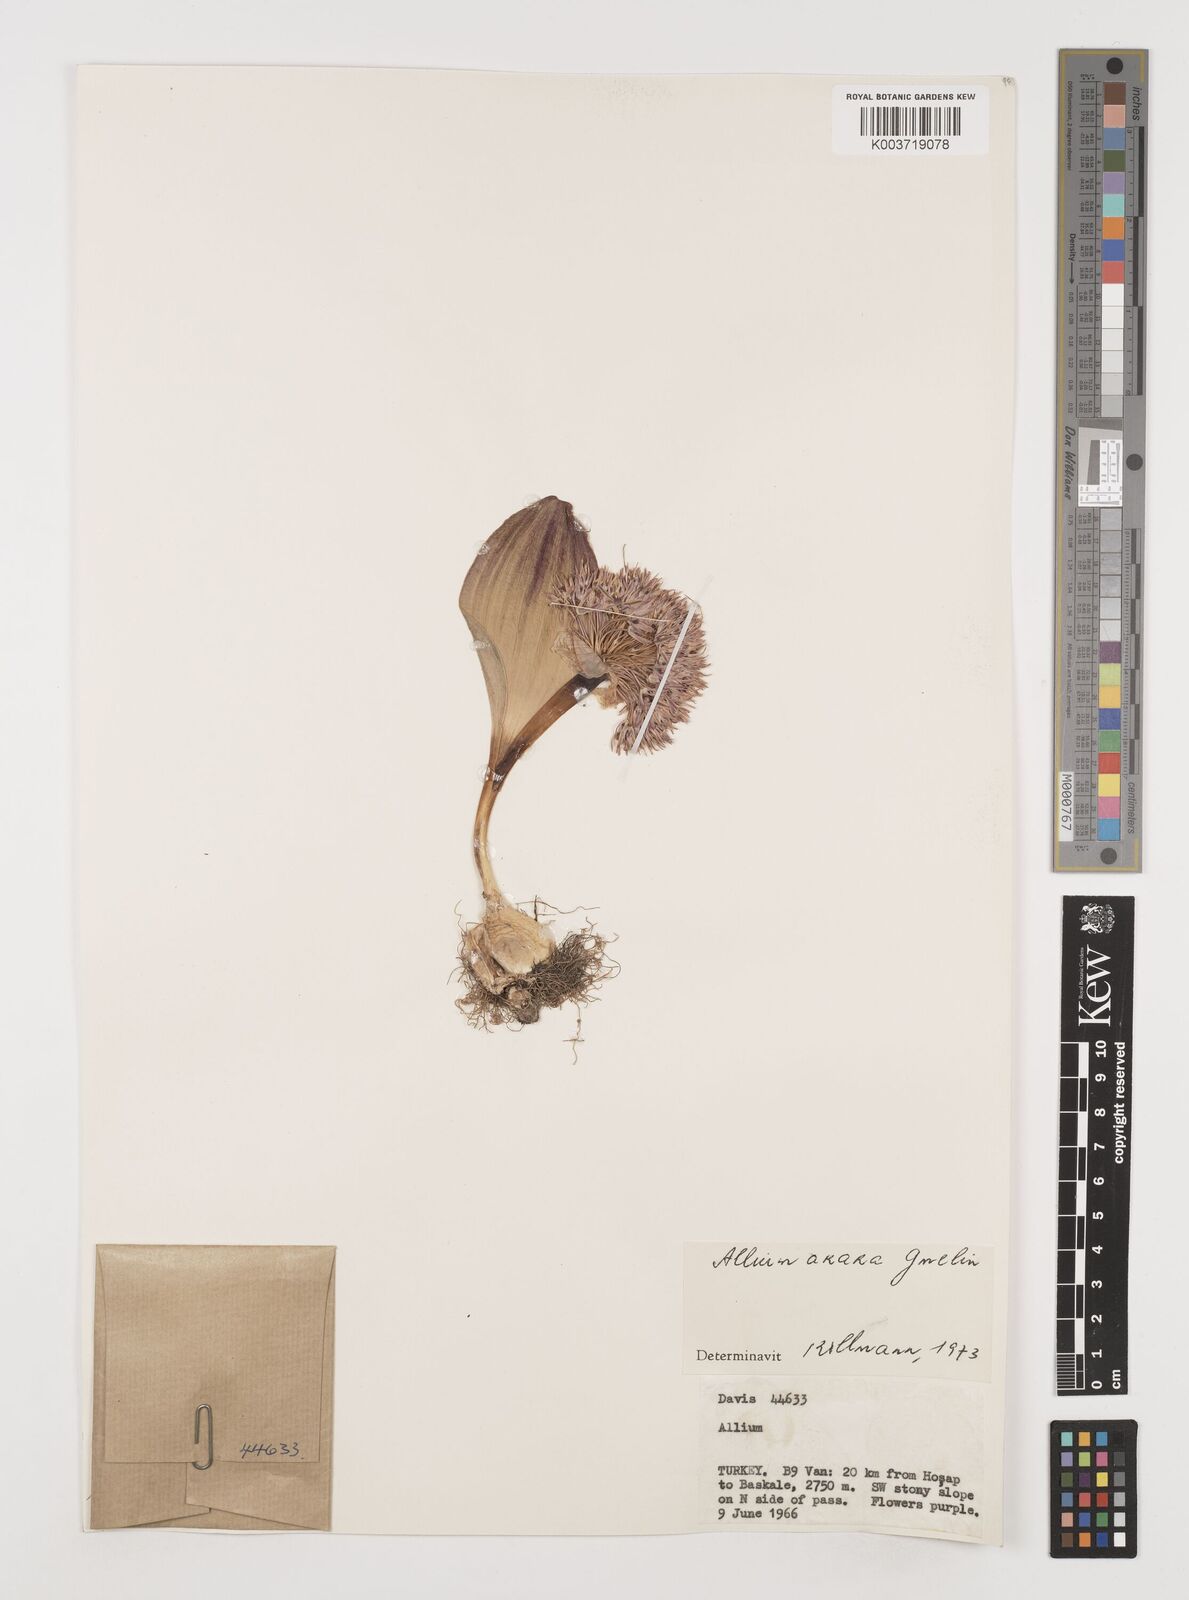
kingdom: Plantae
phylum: Tracheophyta
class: Liliopsida
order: Asparagales
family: Amaryllidaceae
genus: Allium
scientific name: Allium akaka
